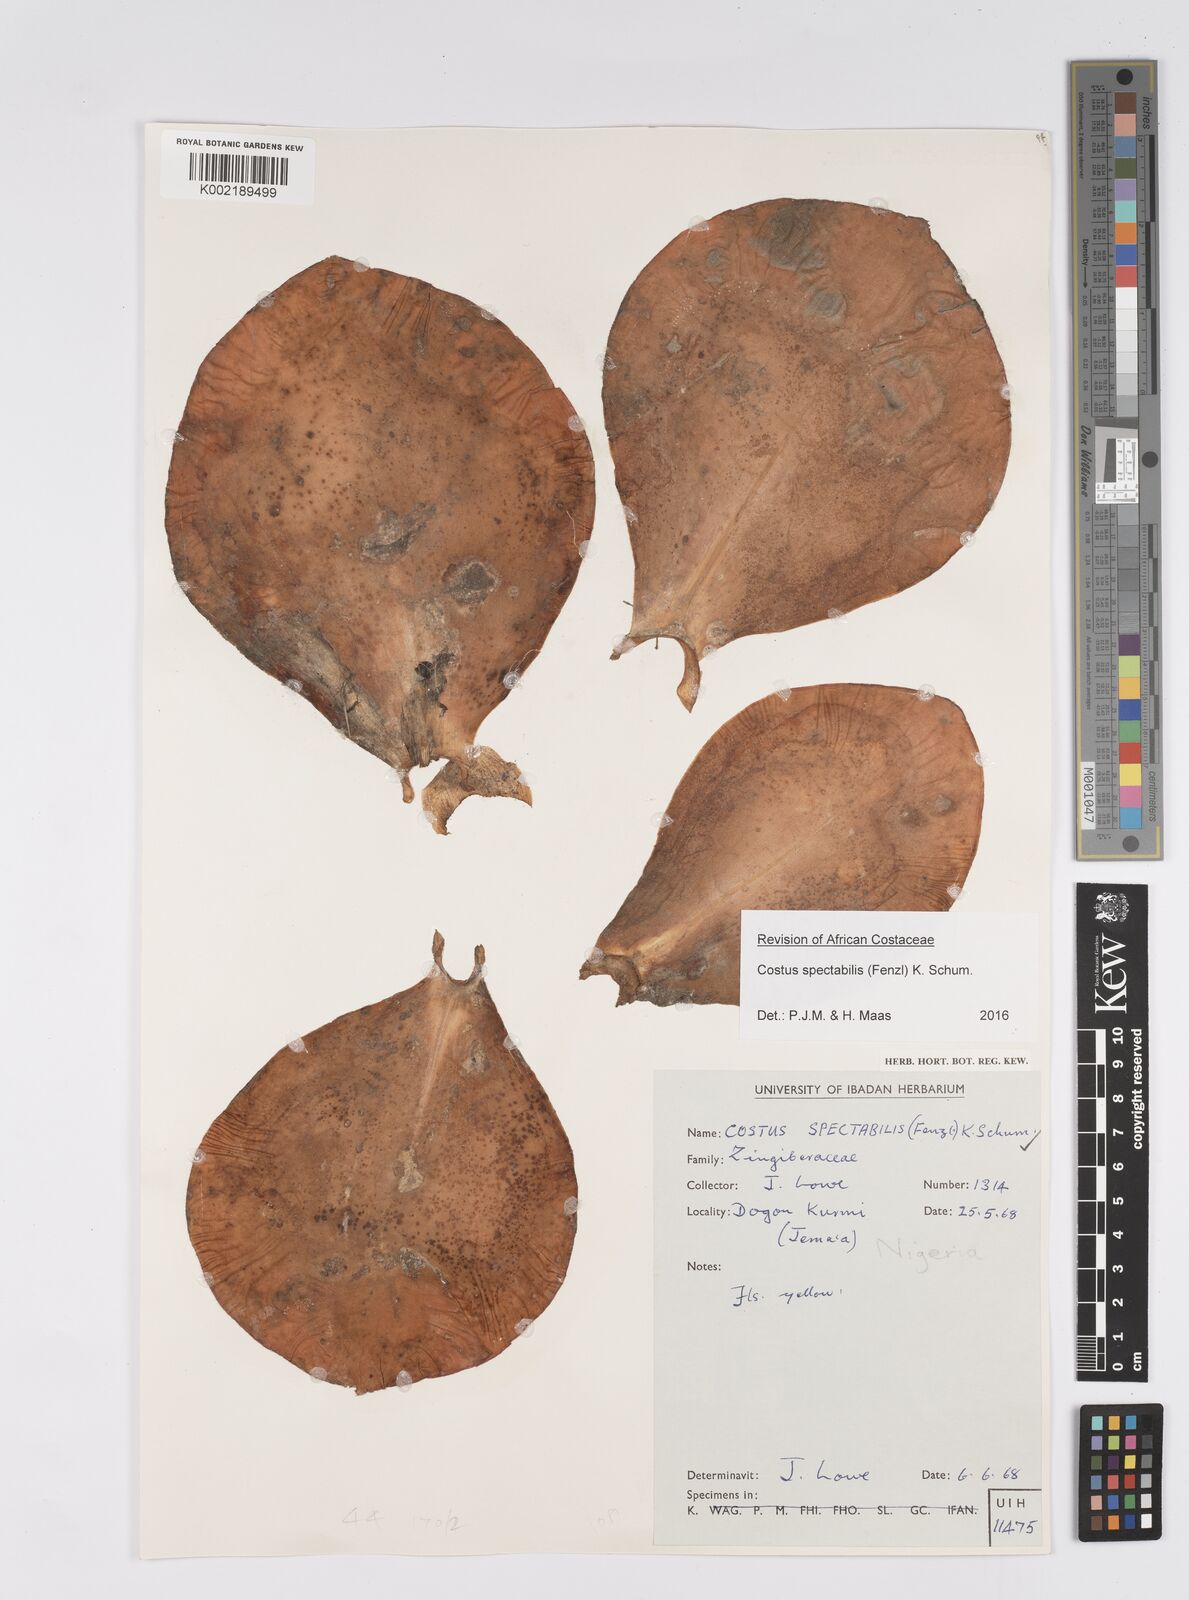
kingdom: Plantae
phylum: Tracheophyta
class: Liliopsida
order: Zingiberales
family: Costaceae
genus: Costus
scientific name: Costus spectabilis
